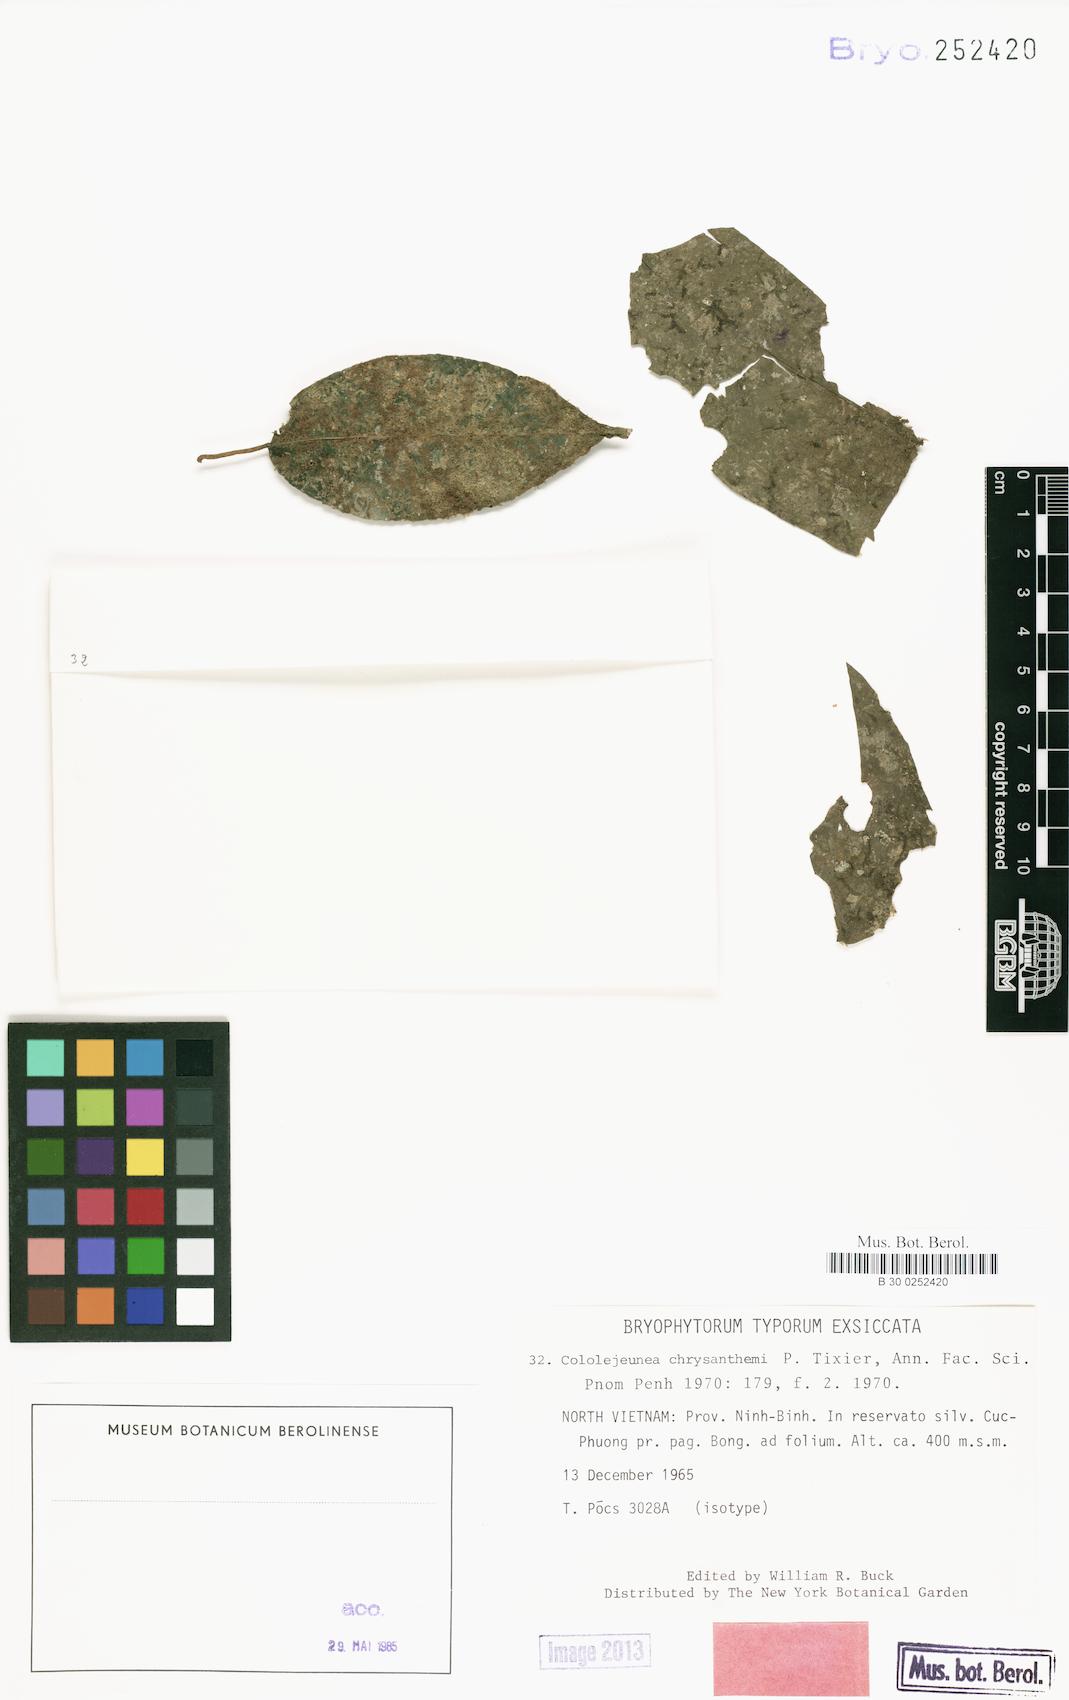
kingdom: Plantae
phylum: Marchantiophyta
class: Jungermanniopsida
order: Porellales
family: Lejeuneaceae
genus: Cololejeunea
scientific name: Cololejeunea equialbi
